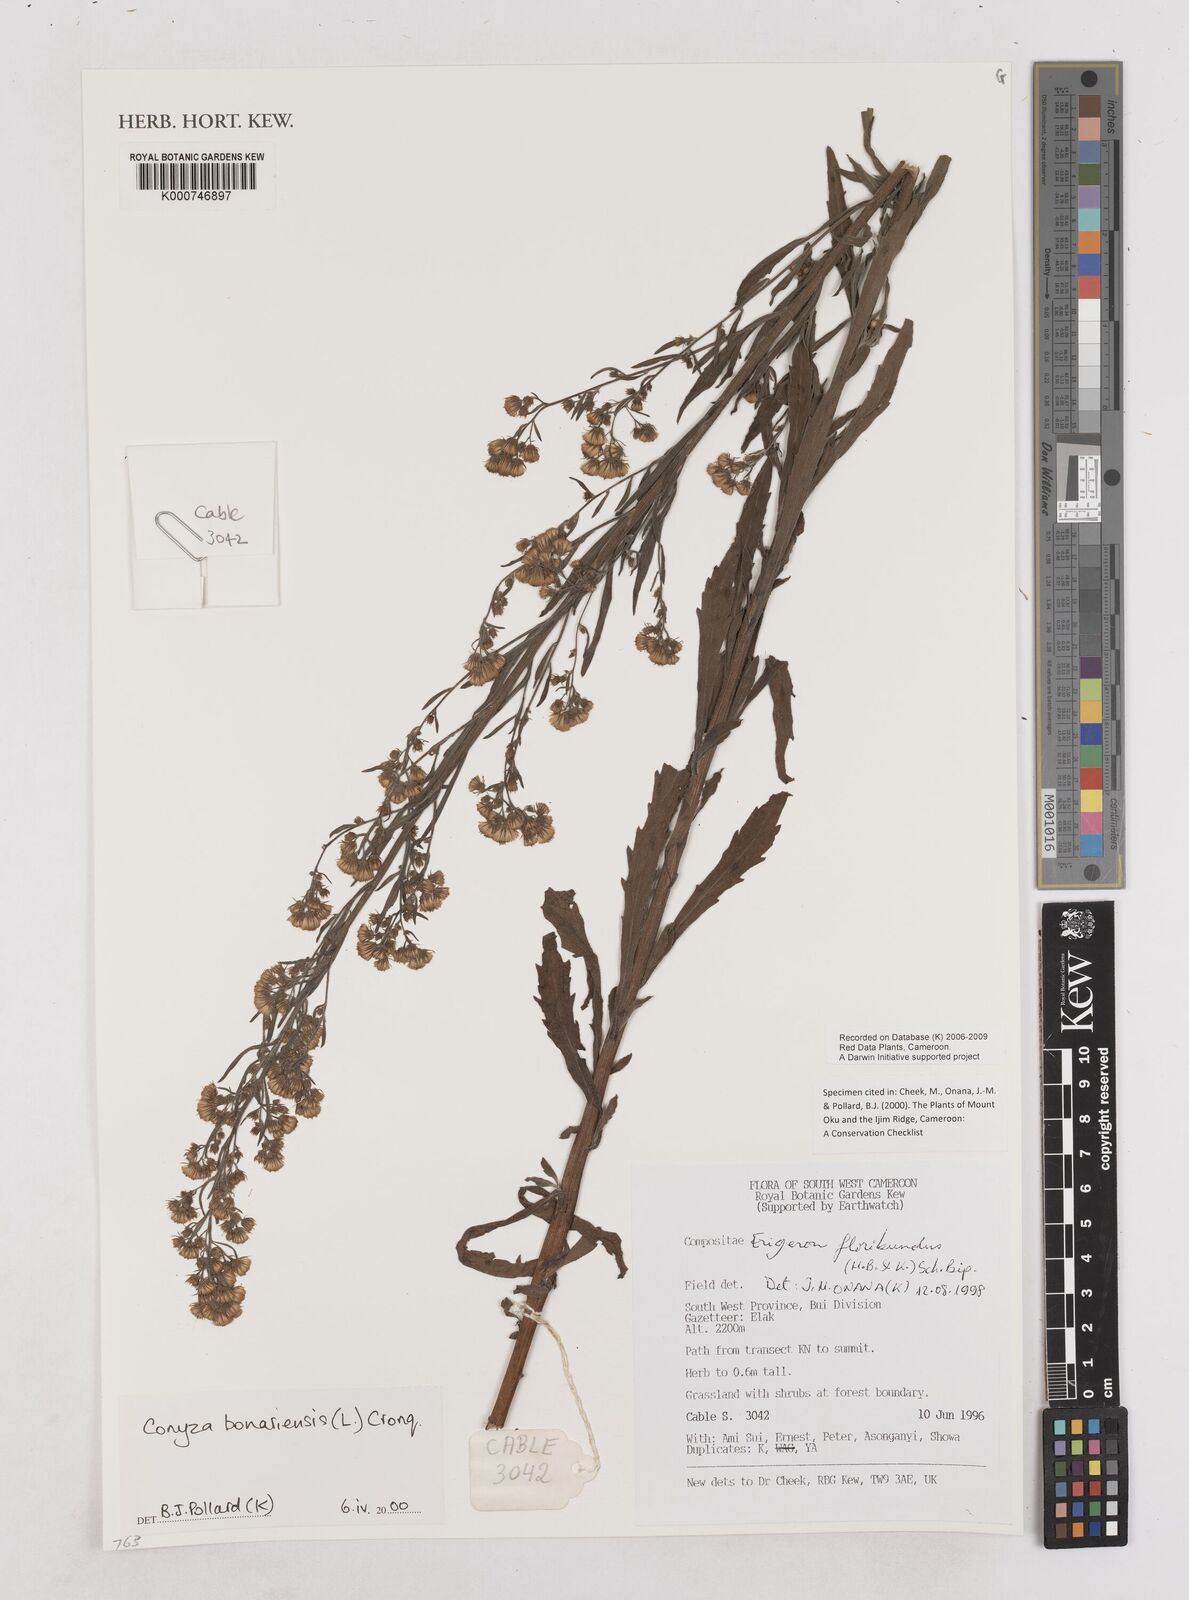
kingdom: Plantae
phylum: Tracheophyta
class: Magnoliopsida
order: Asterales
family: Asteraceae
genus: Erigeron
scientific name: Erigeron bonariensis
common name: Argentine fleabane
